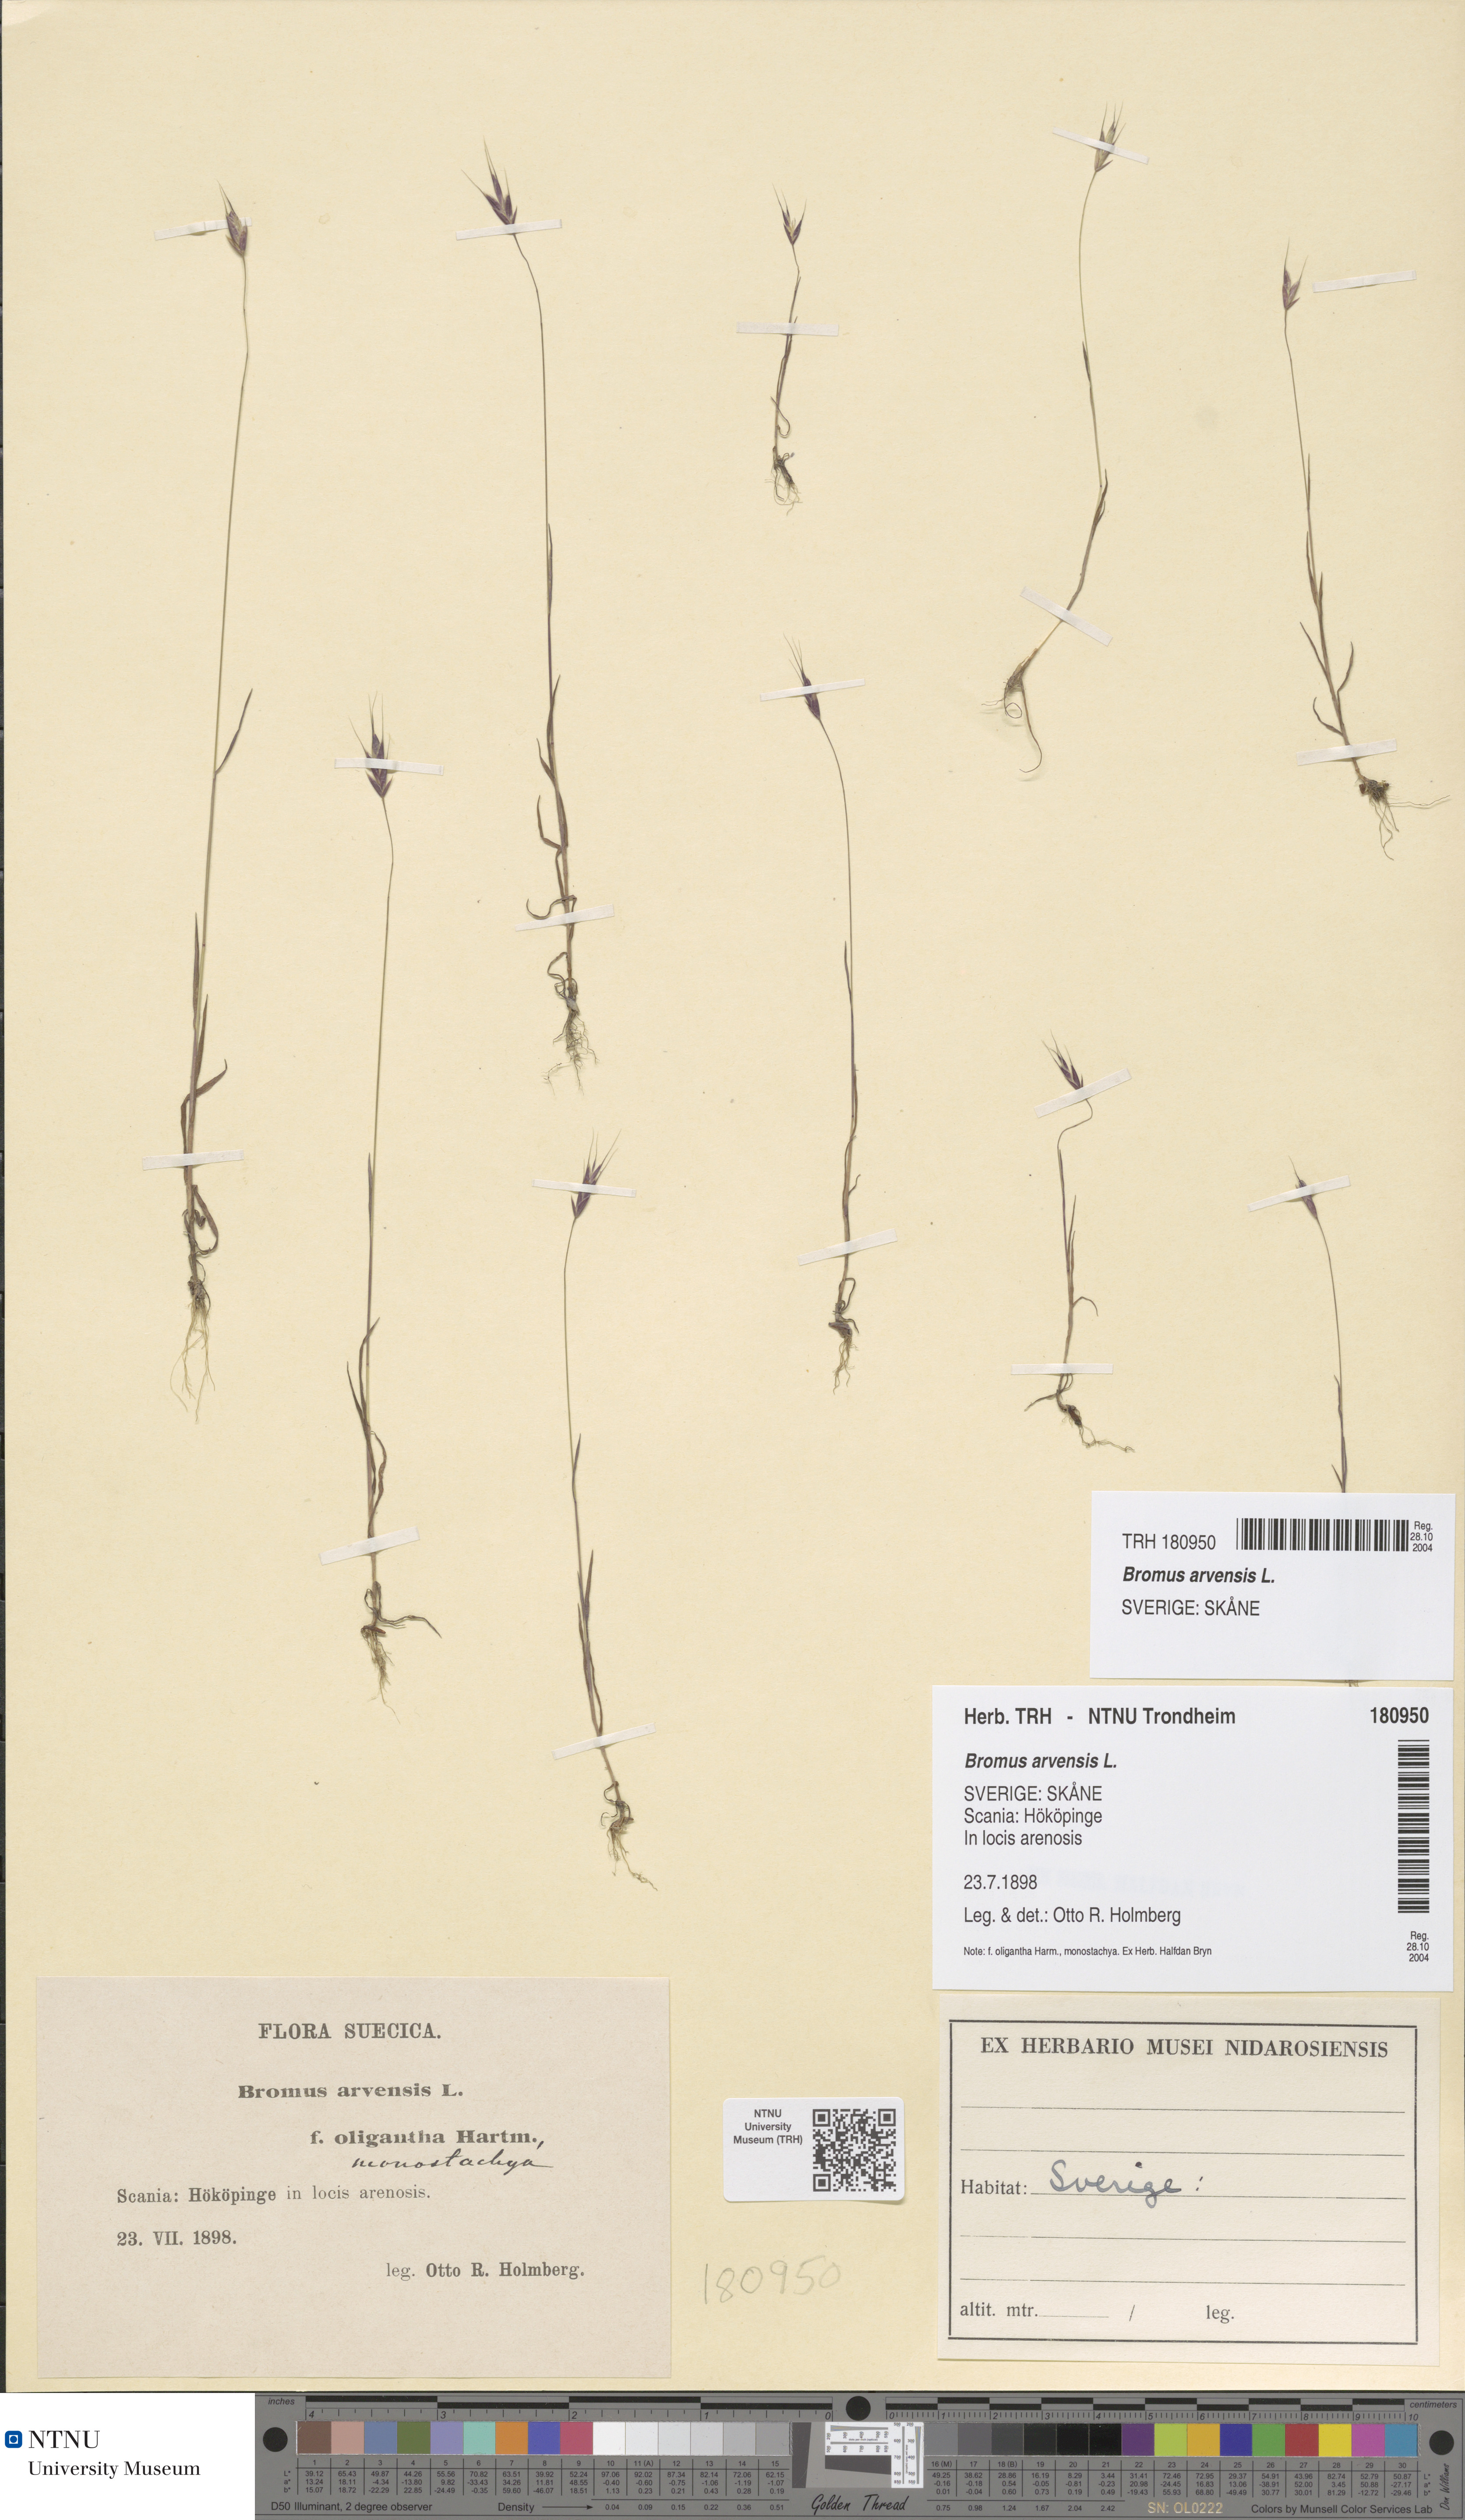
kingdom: Plantae
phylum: Tracheophyta
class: Liliopsida
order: Poales
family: Poaceae
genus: Bromus
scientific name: Bromus arvensis
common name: Field brome
